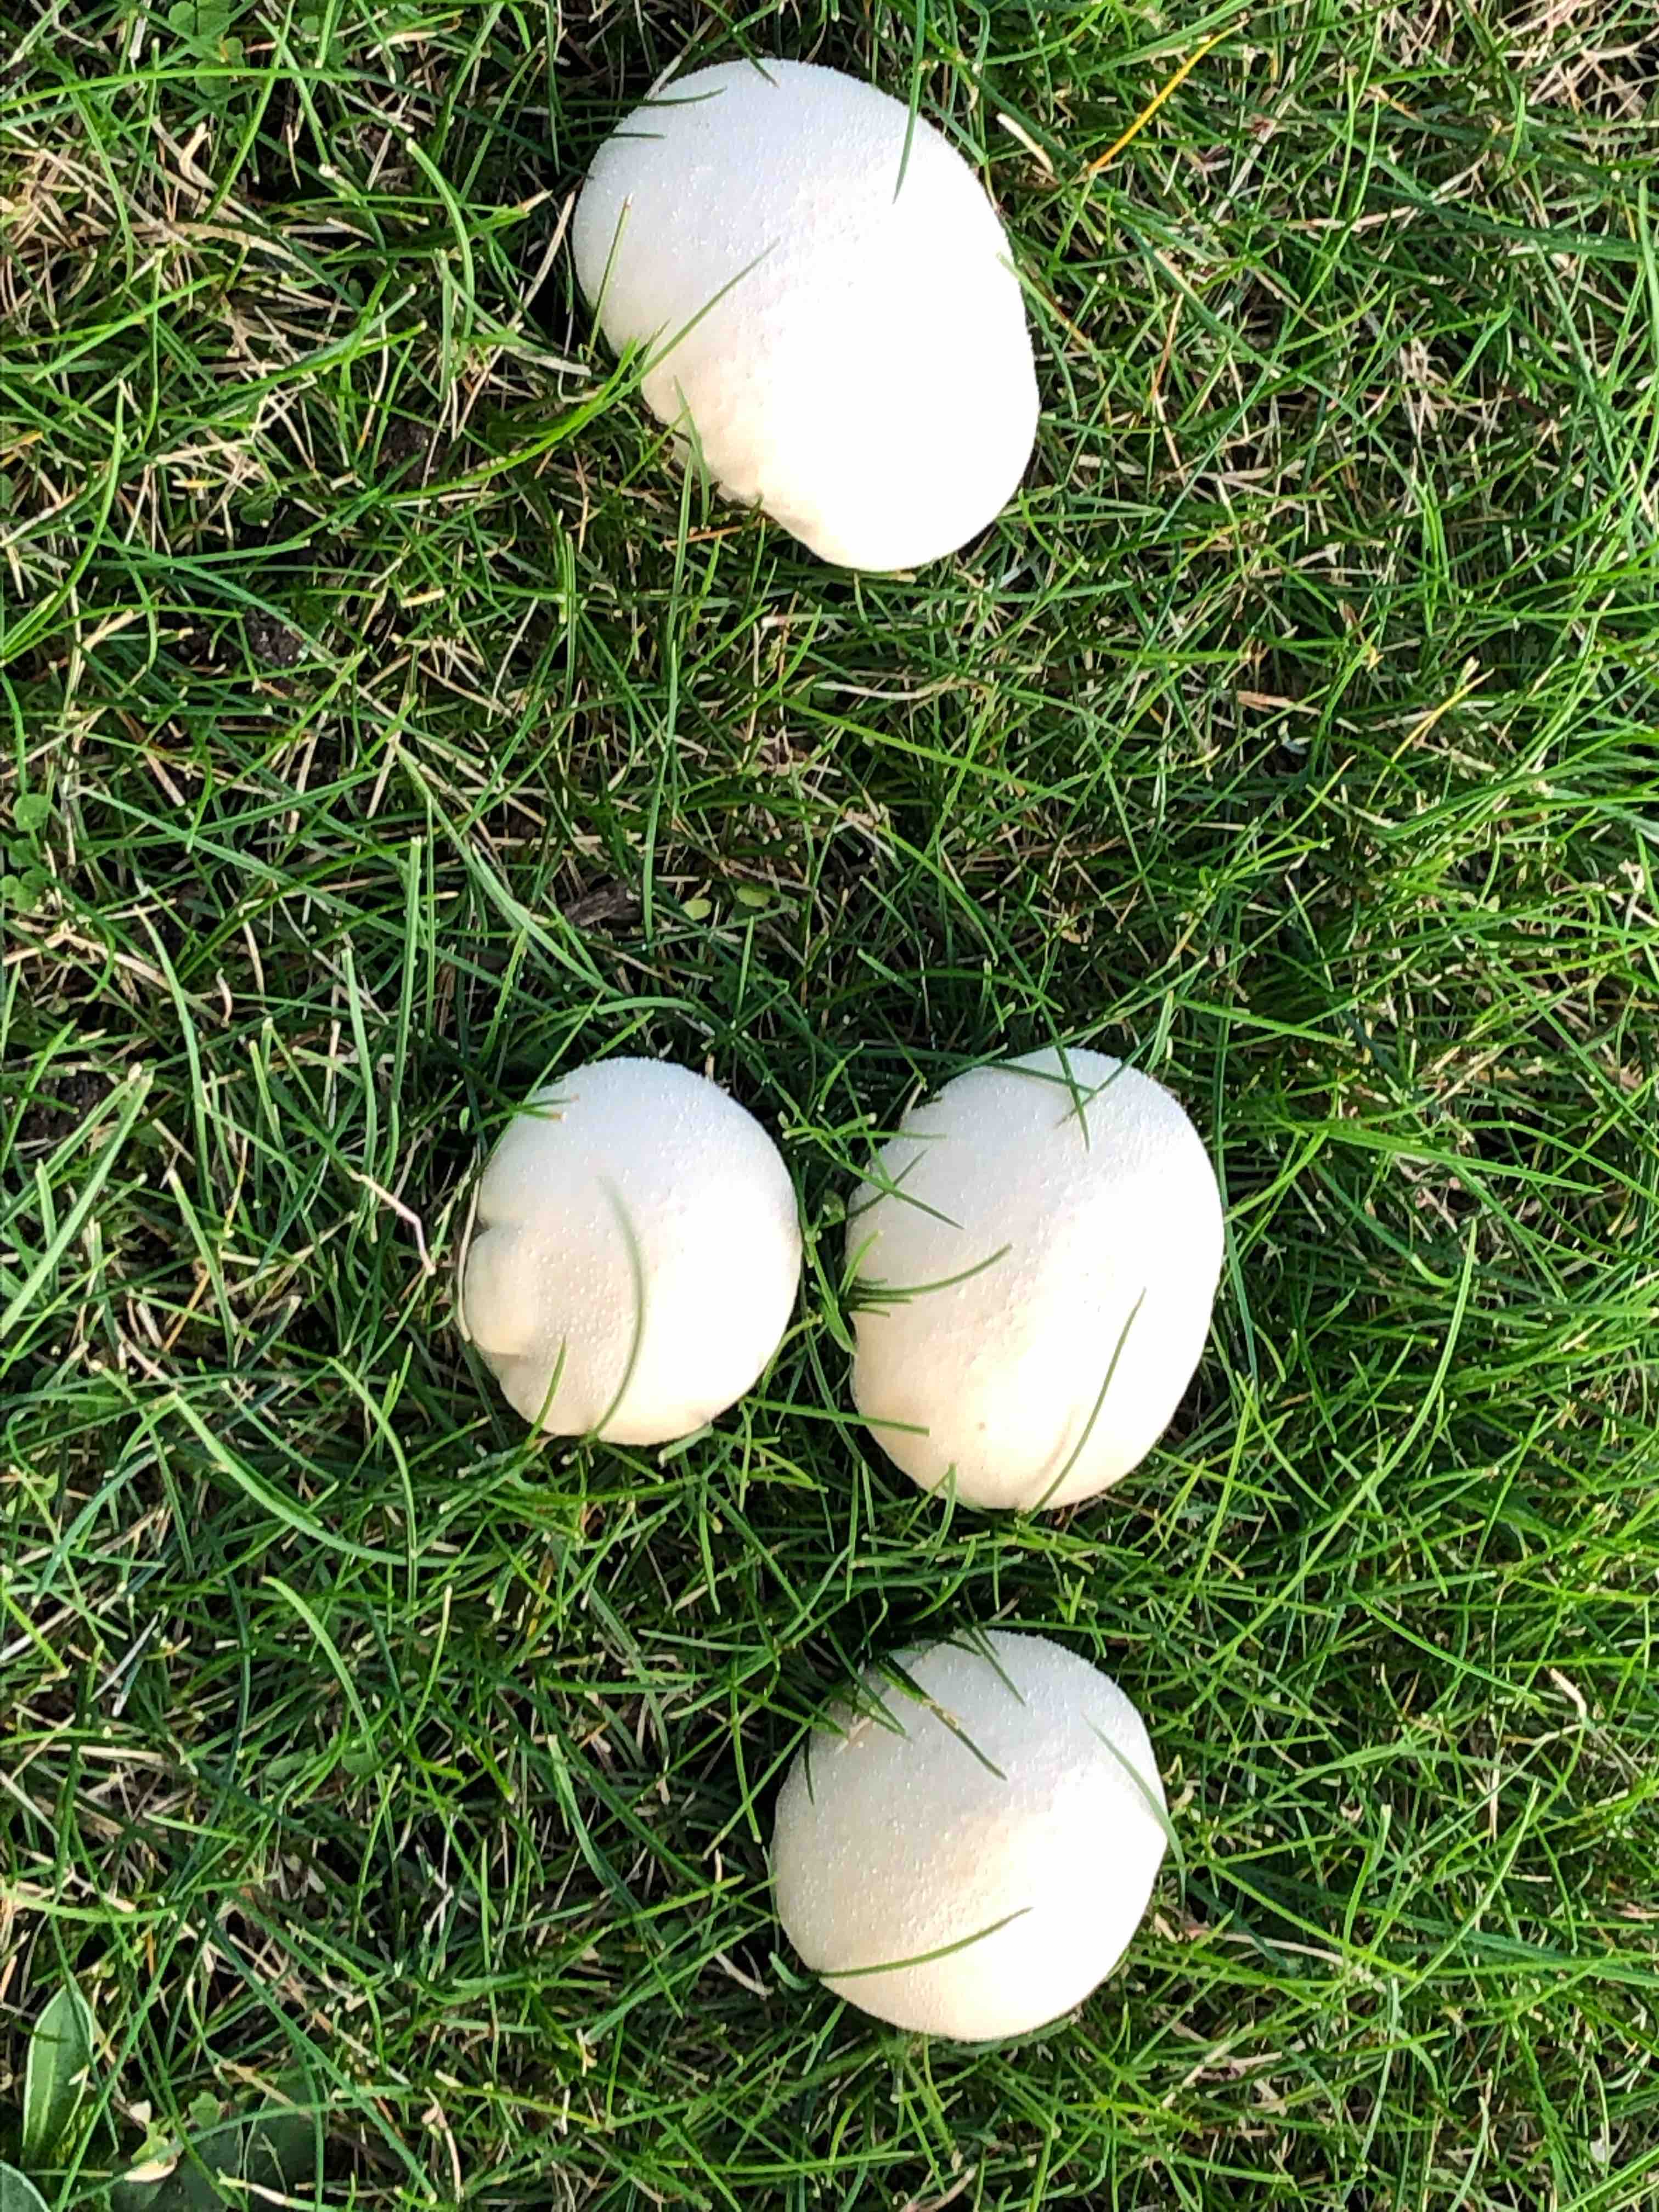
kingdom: Fungi
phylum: Basidiomycota
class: Agaricomycetes
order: Agaricales
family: Lycoperdaceae
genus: Lycoperdon
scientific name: Lycoperdon pratense
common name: flad støvbold
